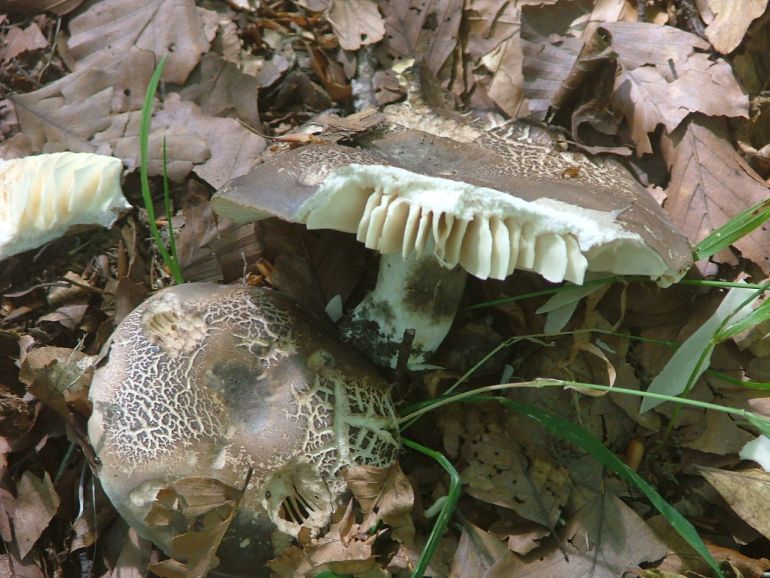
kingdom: Fungi
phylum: Basidiomycota
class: Agaricomycetes
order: Russulales
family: Russulaceae
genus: Russula
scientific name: Russula adusta
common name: sværtende skørhat
